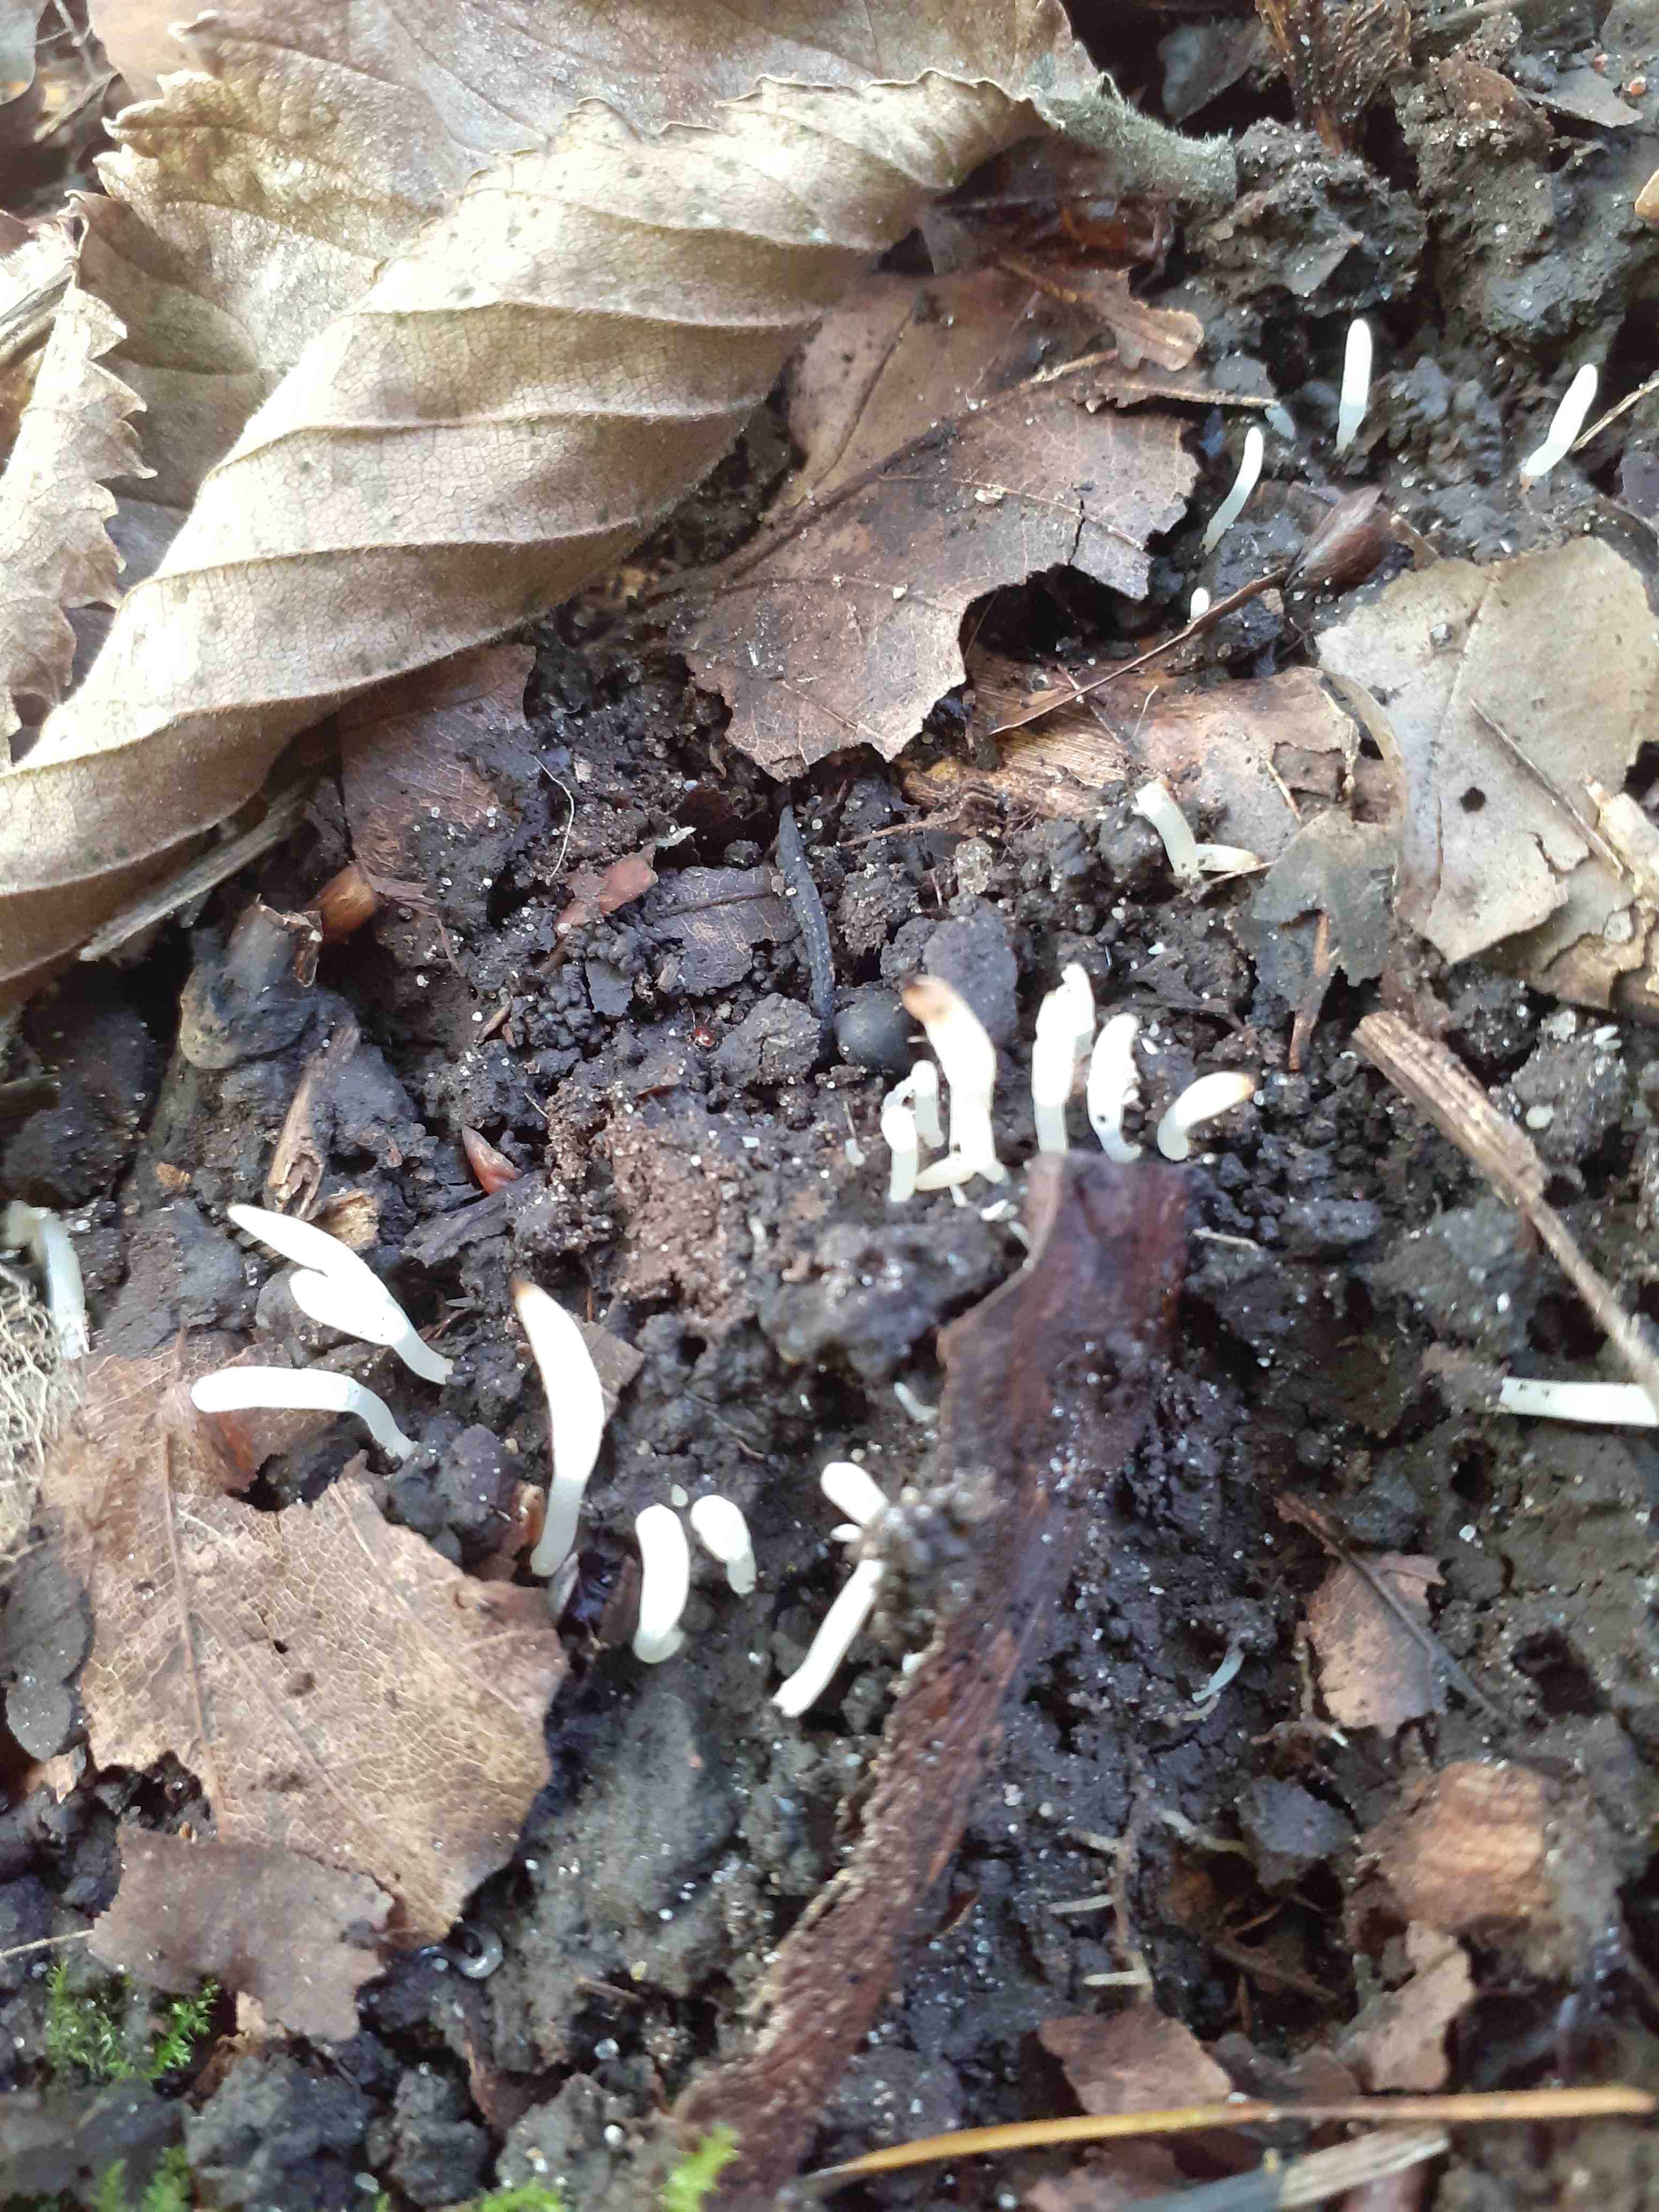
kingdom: Fungi
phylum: Basidiomycota
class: Agaricomycetes
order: Agaricales
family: Clavariaceae
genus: Clavaria
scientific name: Clavaria falcata
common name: hvid køllesvamp
